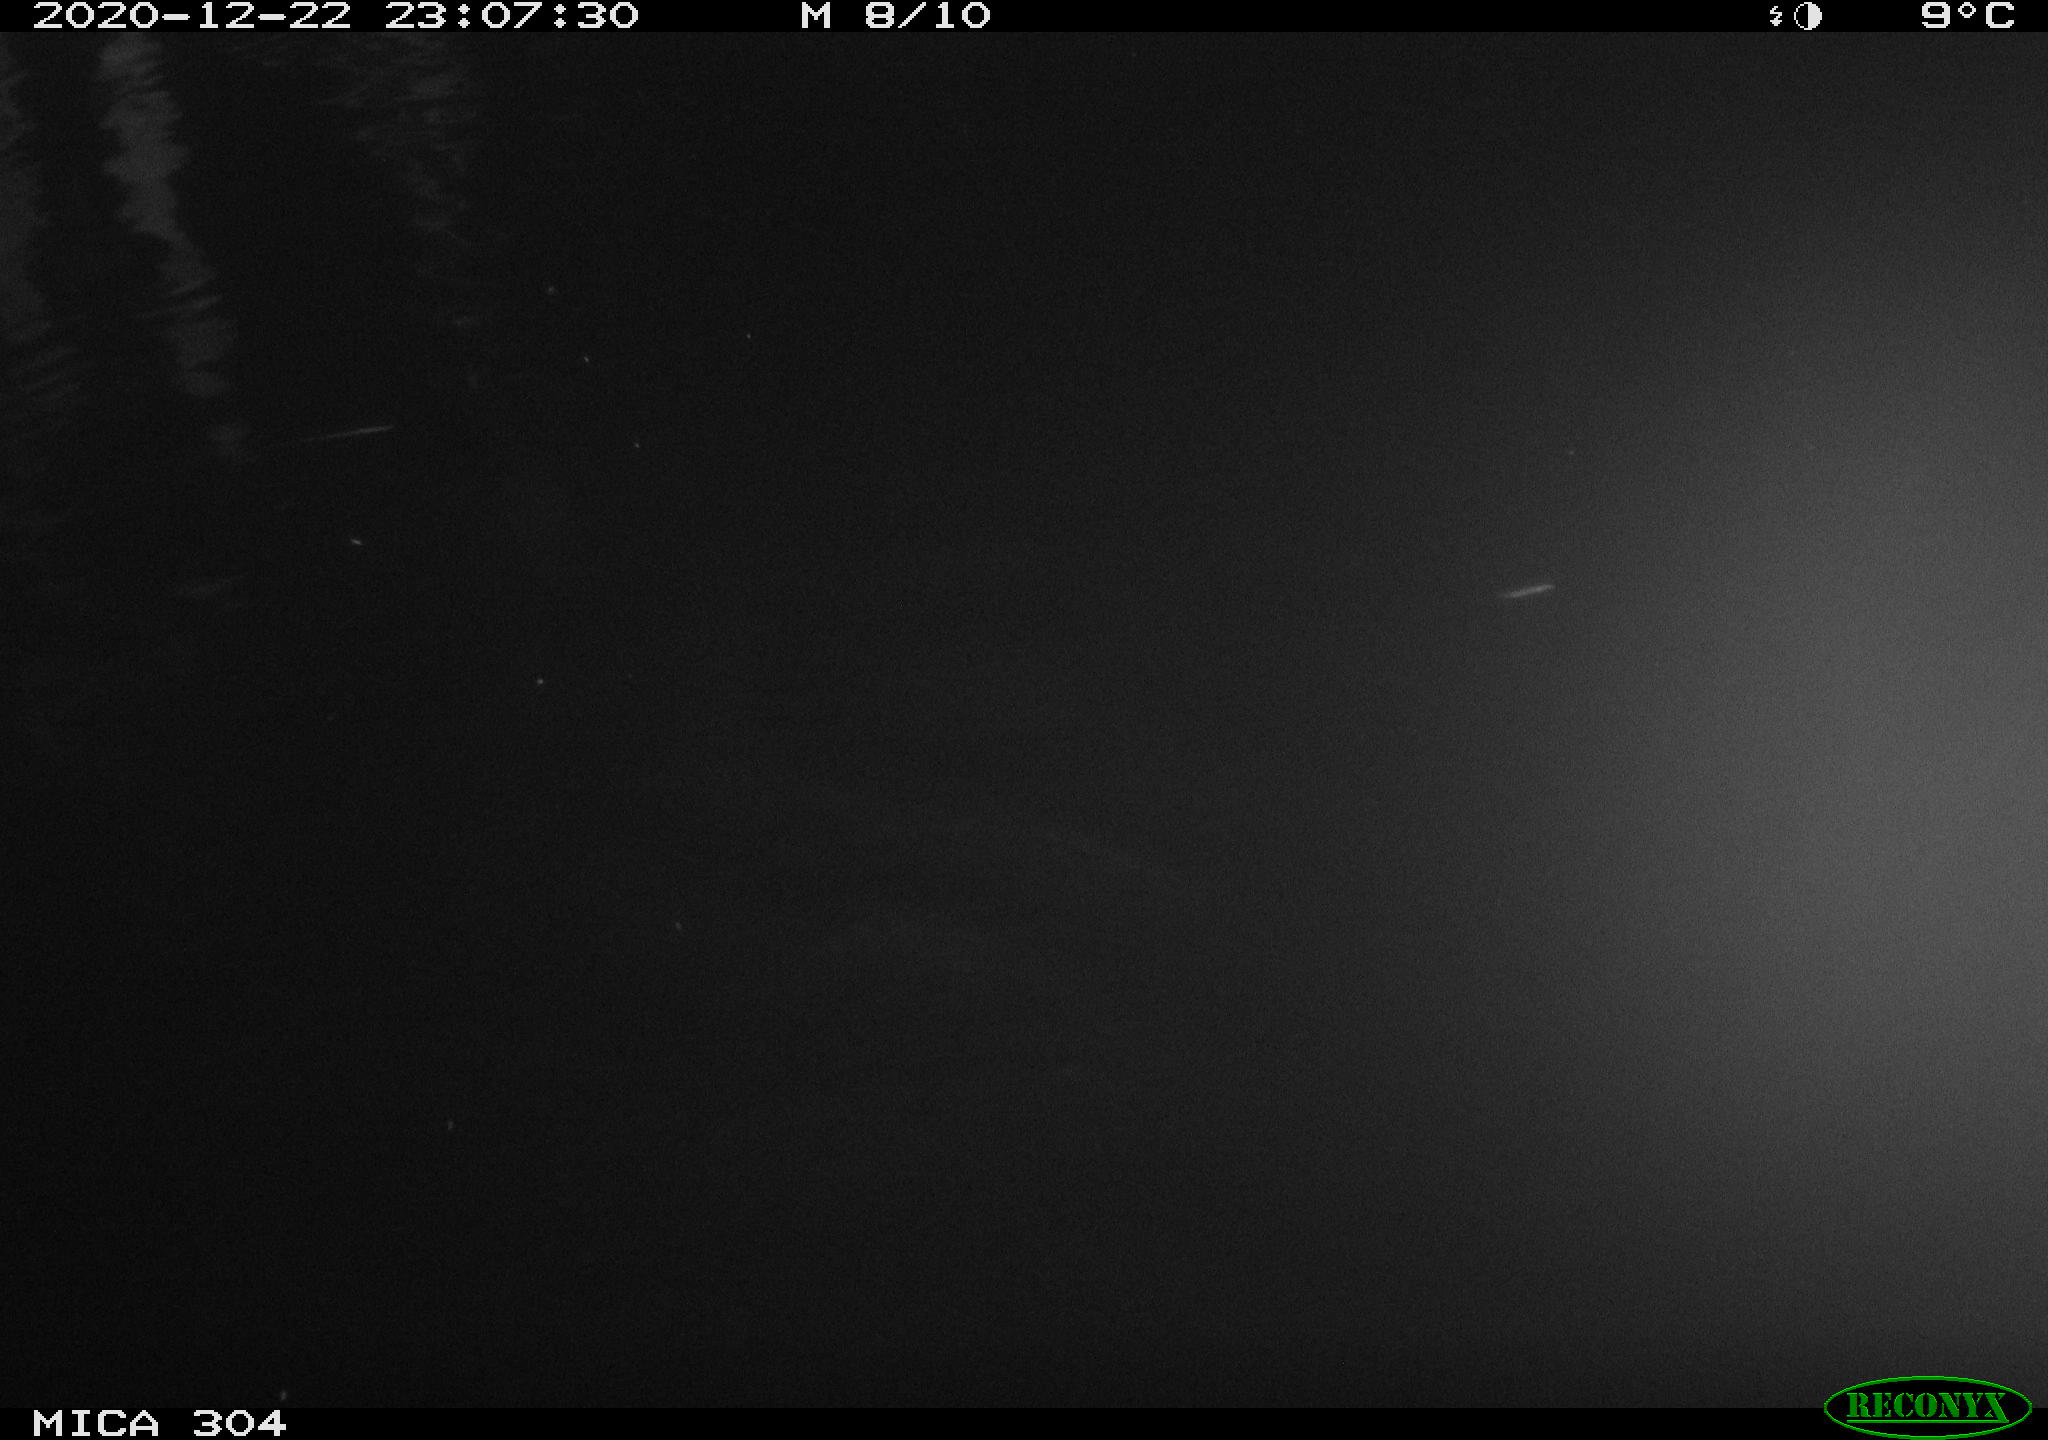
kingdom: Animalia
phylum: Chordata
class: Mammalia
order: Rodentia
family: Cricetidae
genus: Ondatra
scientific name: Ondatra zibethicus
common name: Muskrat
